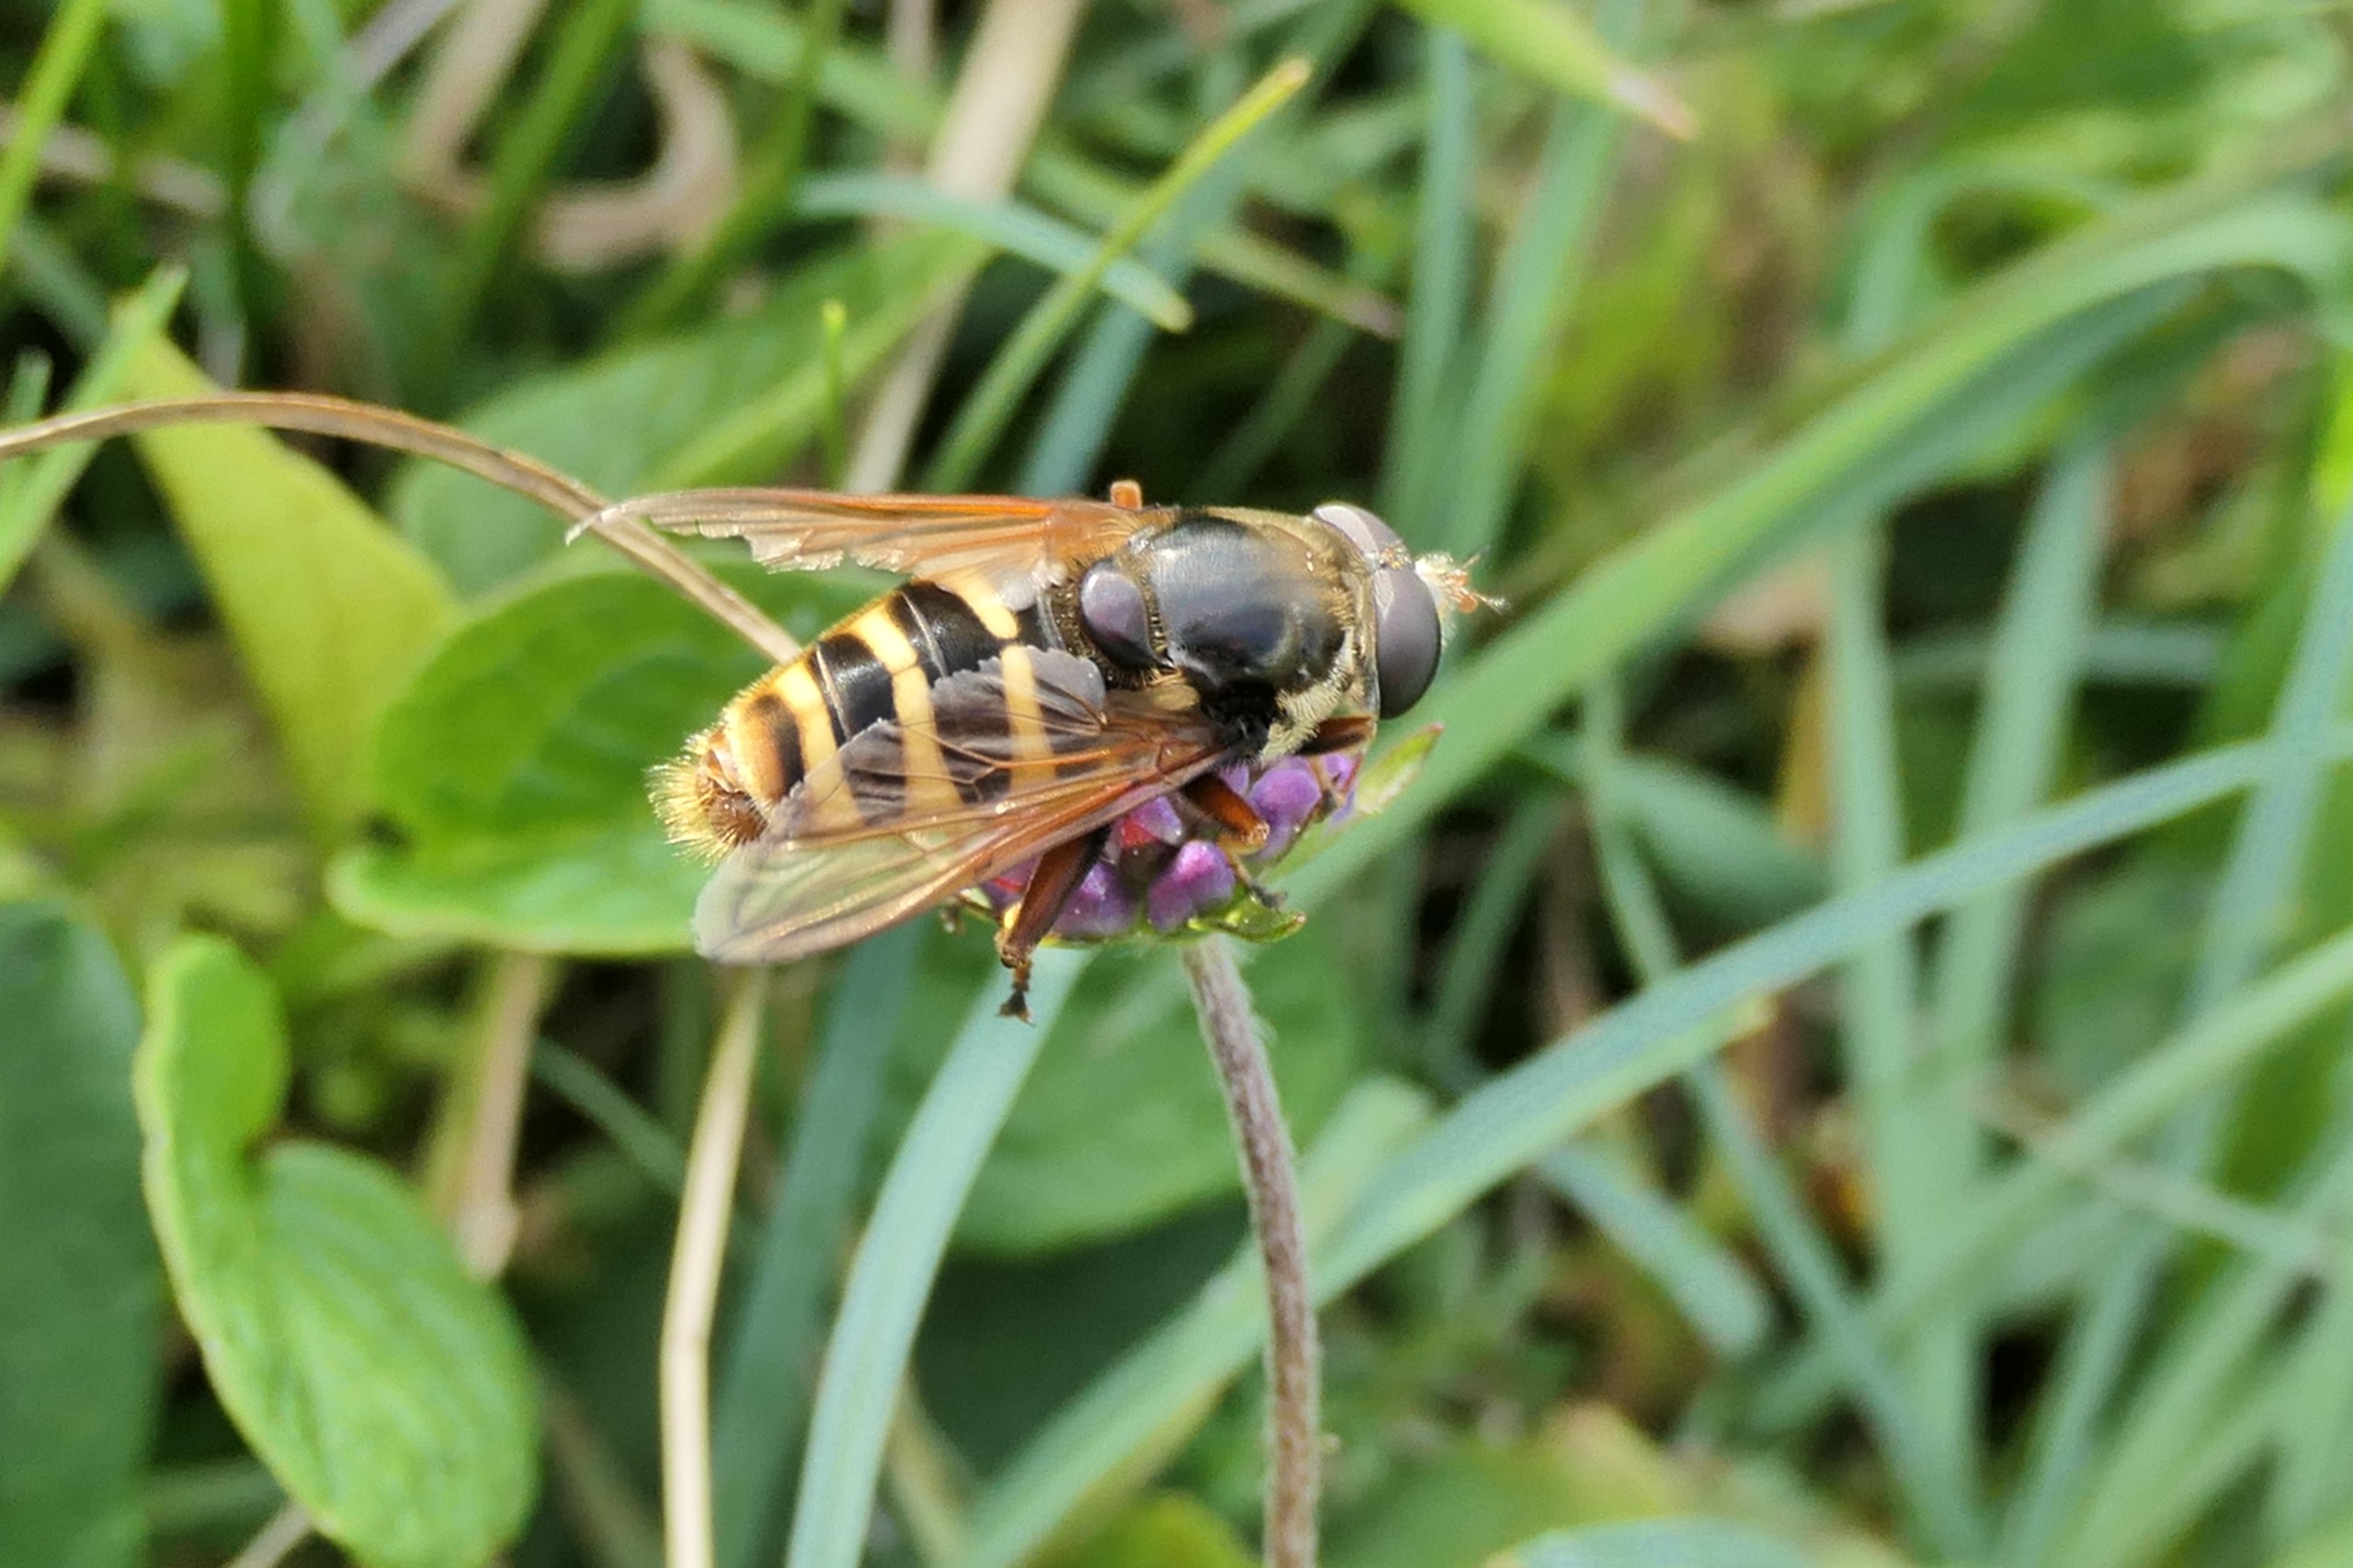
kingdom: Animalia
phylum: Arthropoda
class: Insecta
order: Diptera
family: Syrphidae
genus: Sericomyia
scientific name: Sericomyia silentis
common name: Tørve-silkesvirreflue
